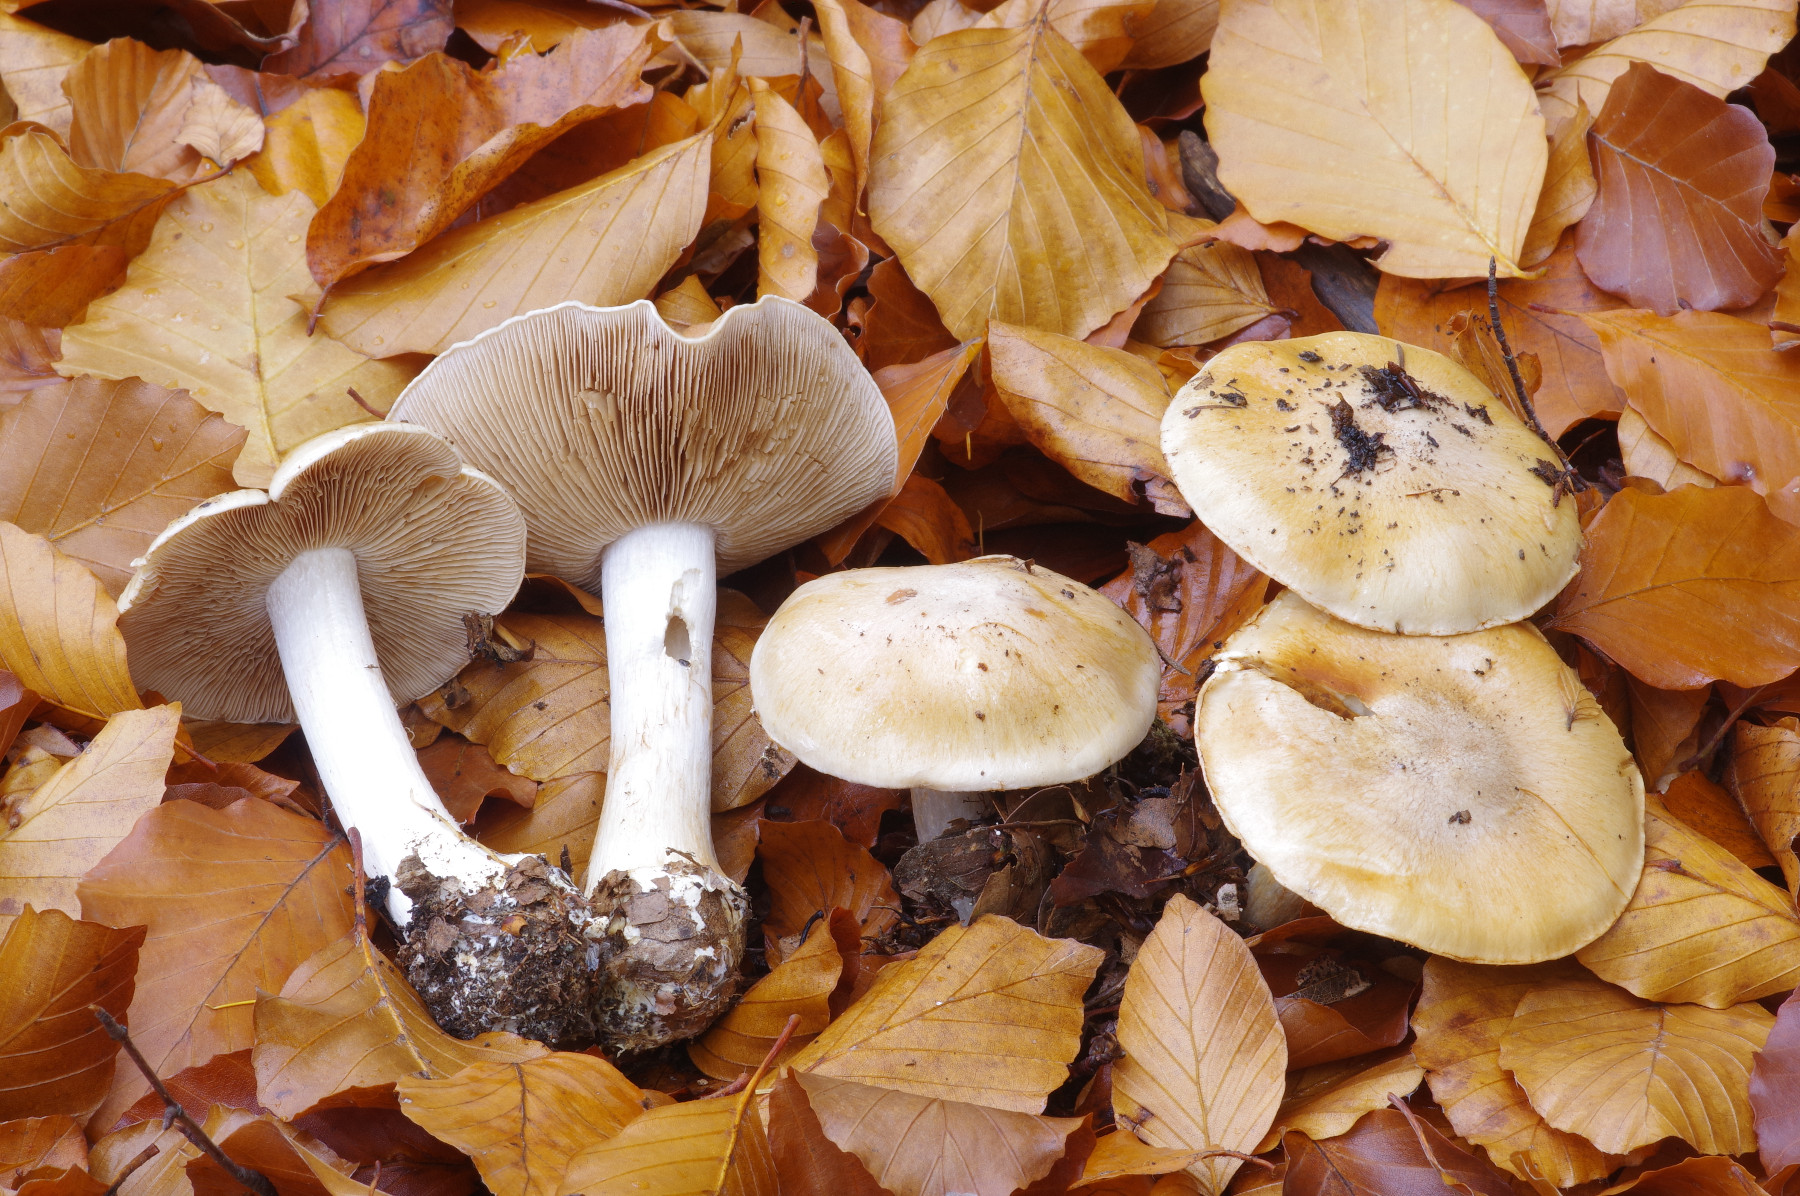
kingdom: Fungi
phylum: Basidiomycota
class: Agaricomycetes
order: Agaricales
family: Cortinariaceae
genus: Cortinarius
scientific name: Cortinarius caesiostramineus
